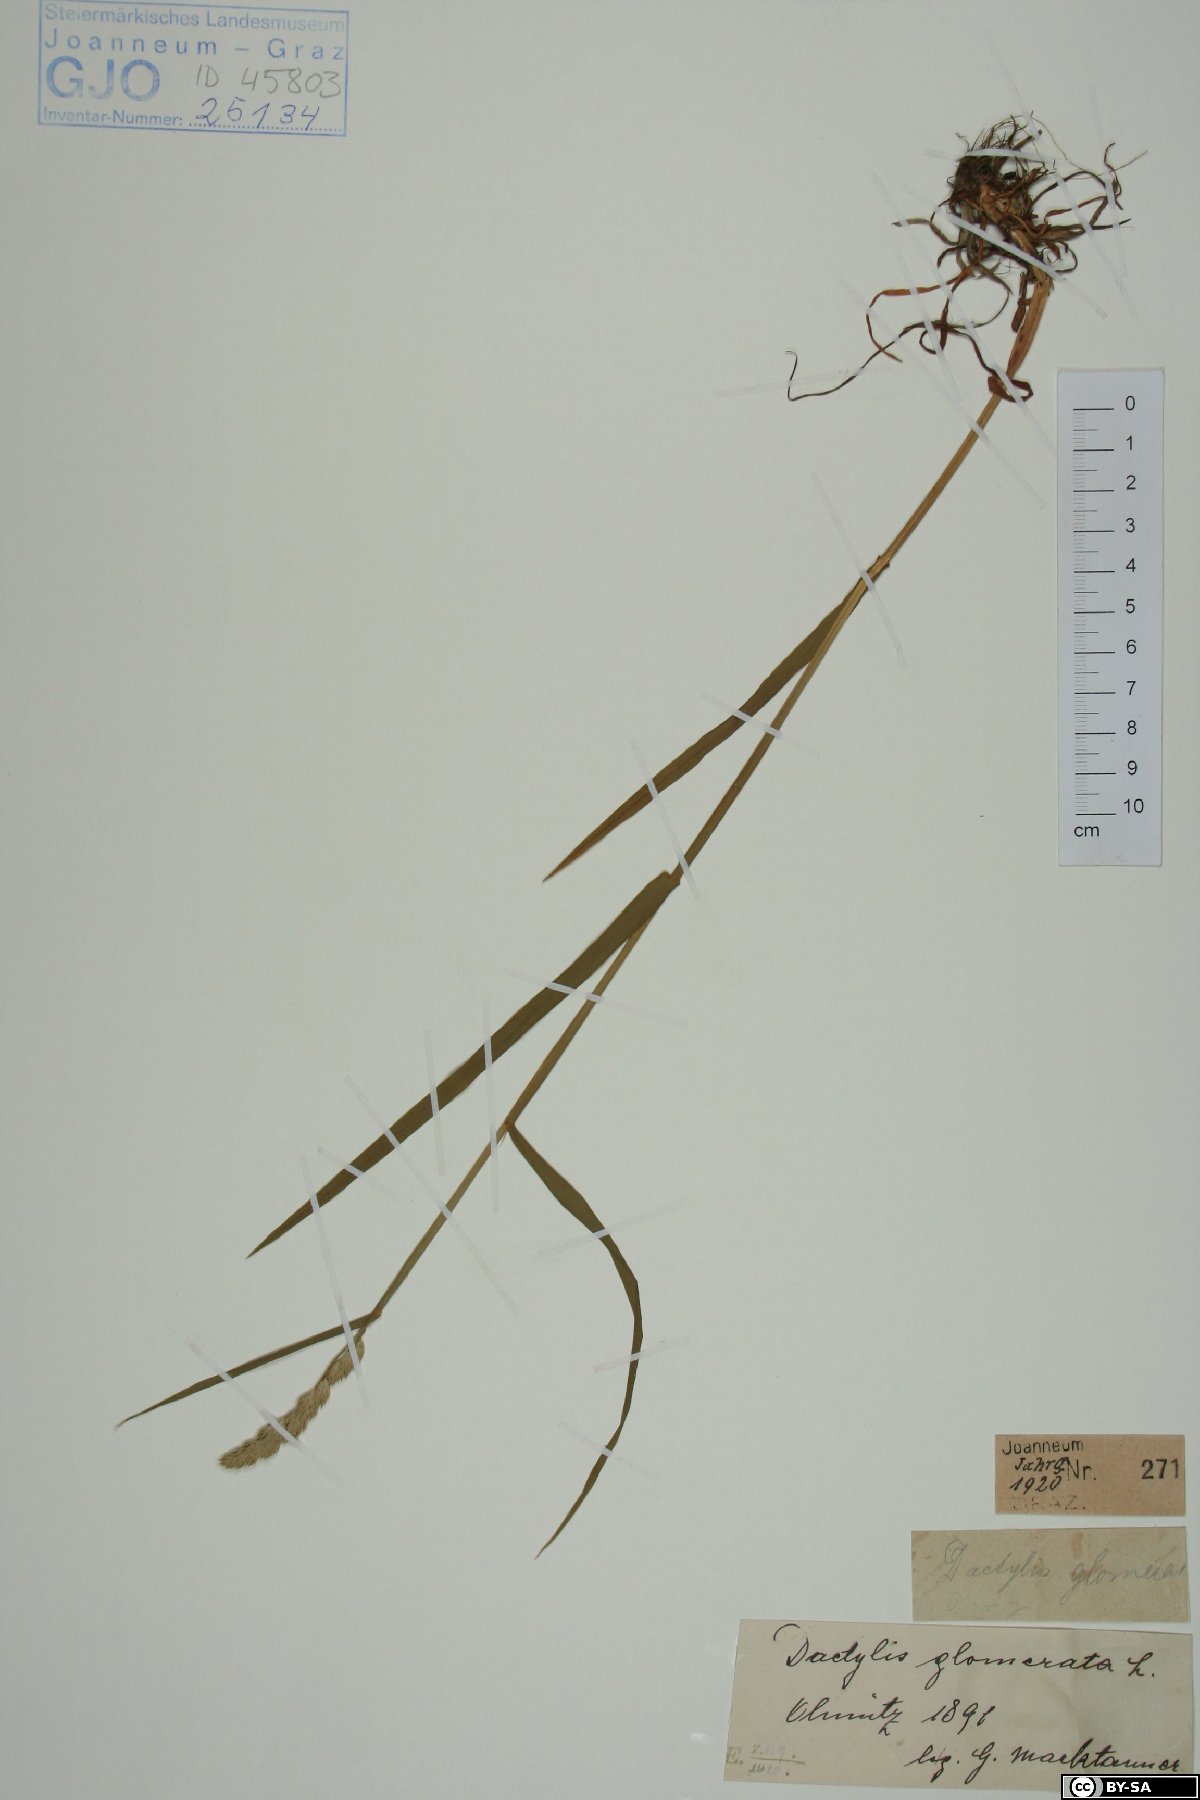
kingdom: Plantae
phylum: Tracheophyta
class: Liliopsida
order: Poales
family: Poaceae
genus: Dactylis
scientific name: Dactylis glomerata
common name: Orchardgrass
